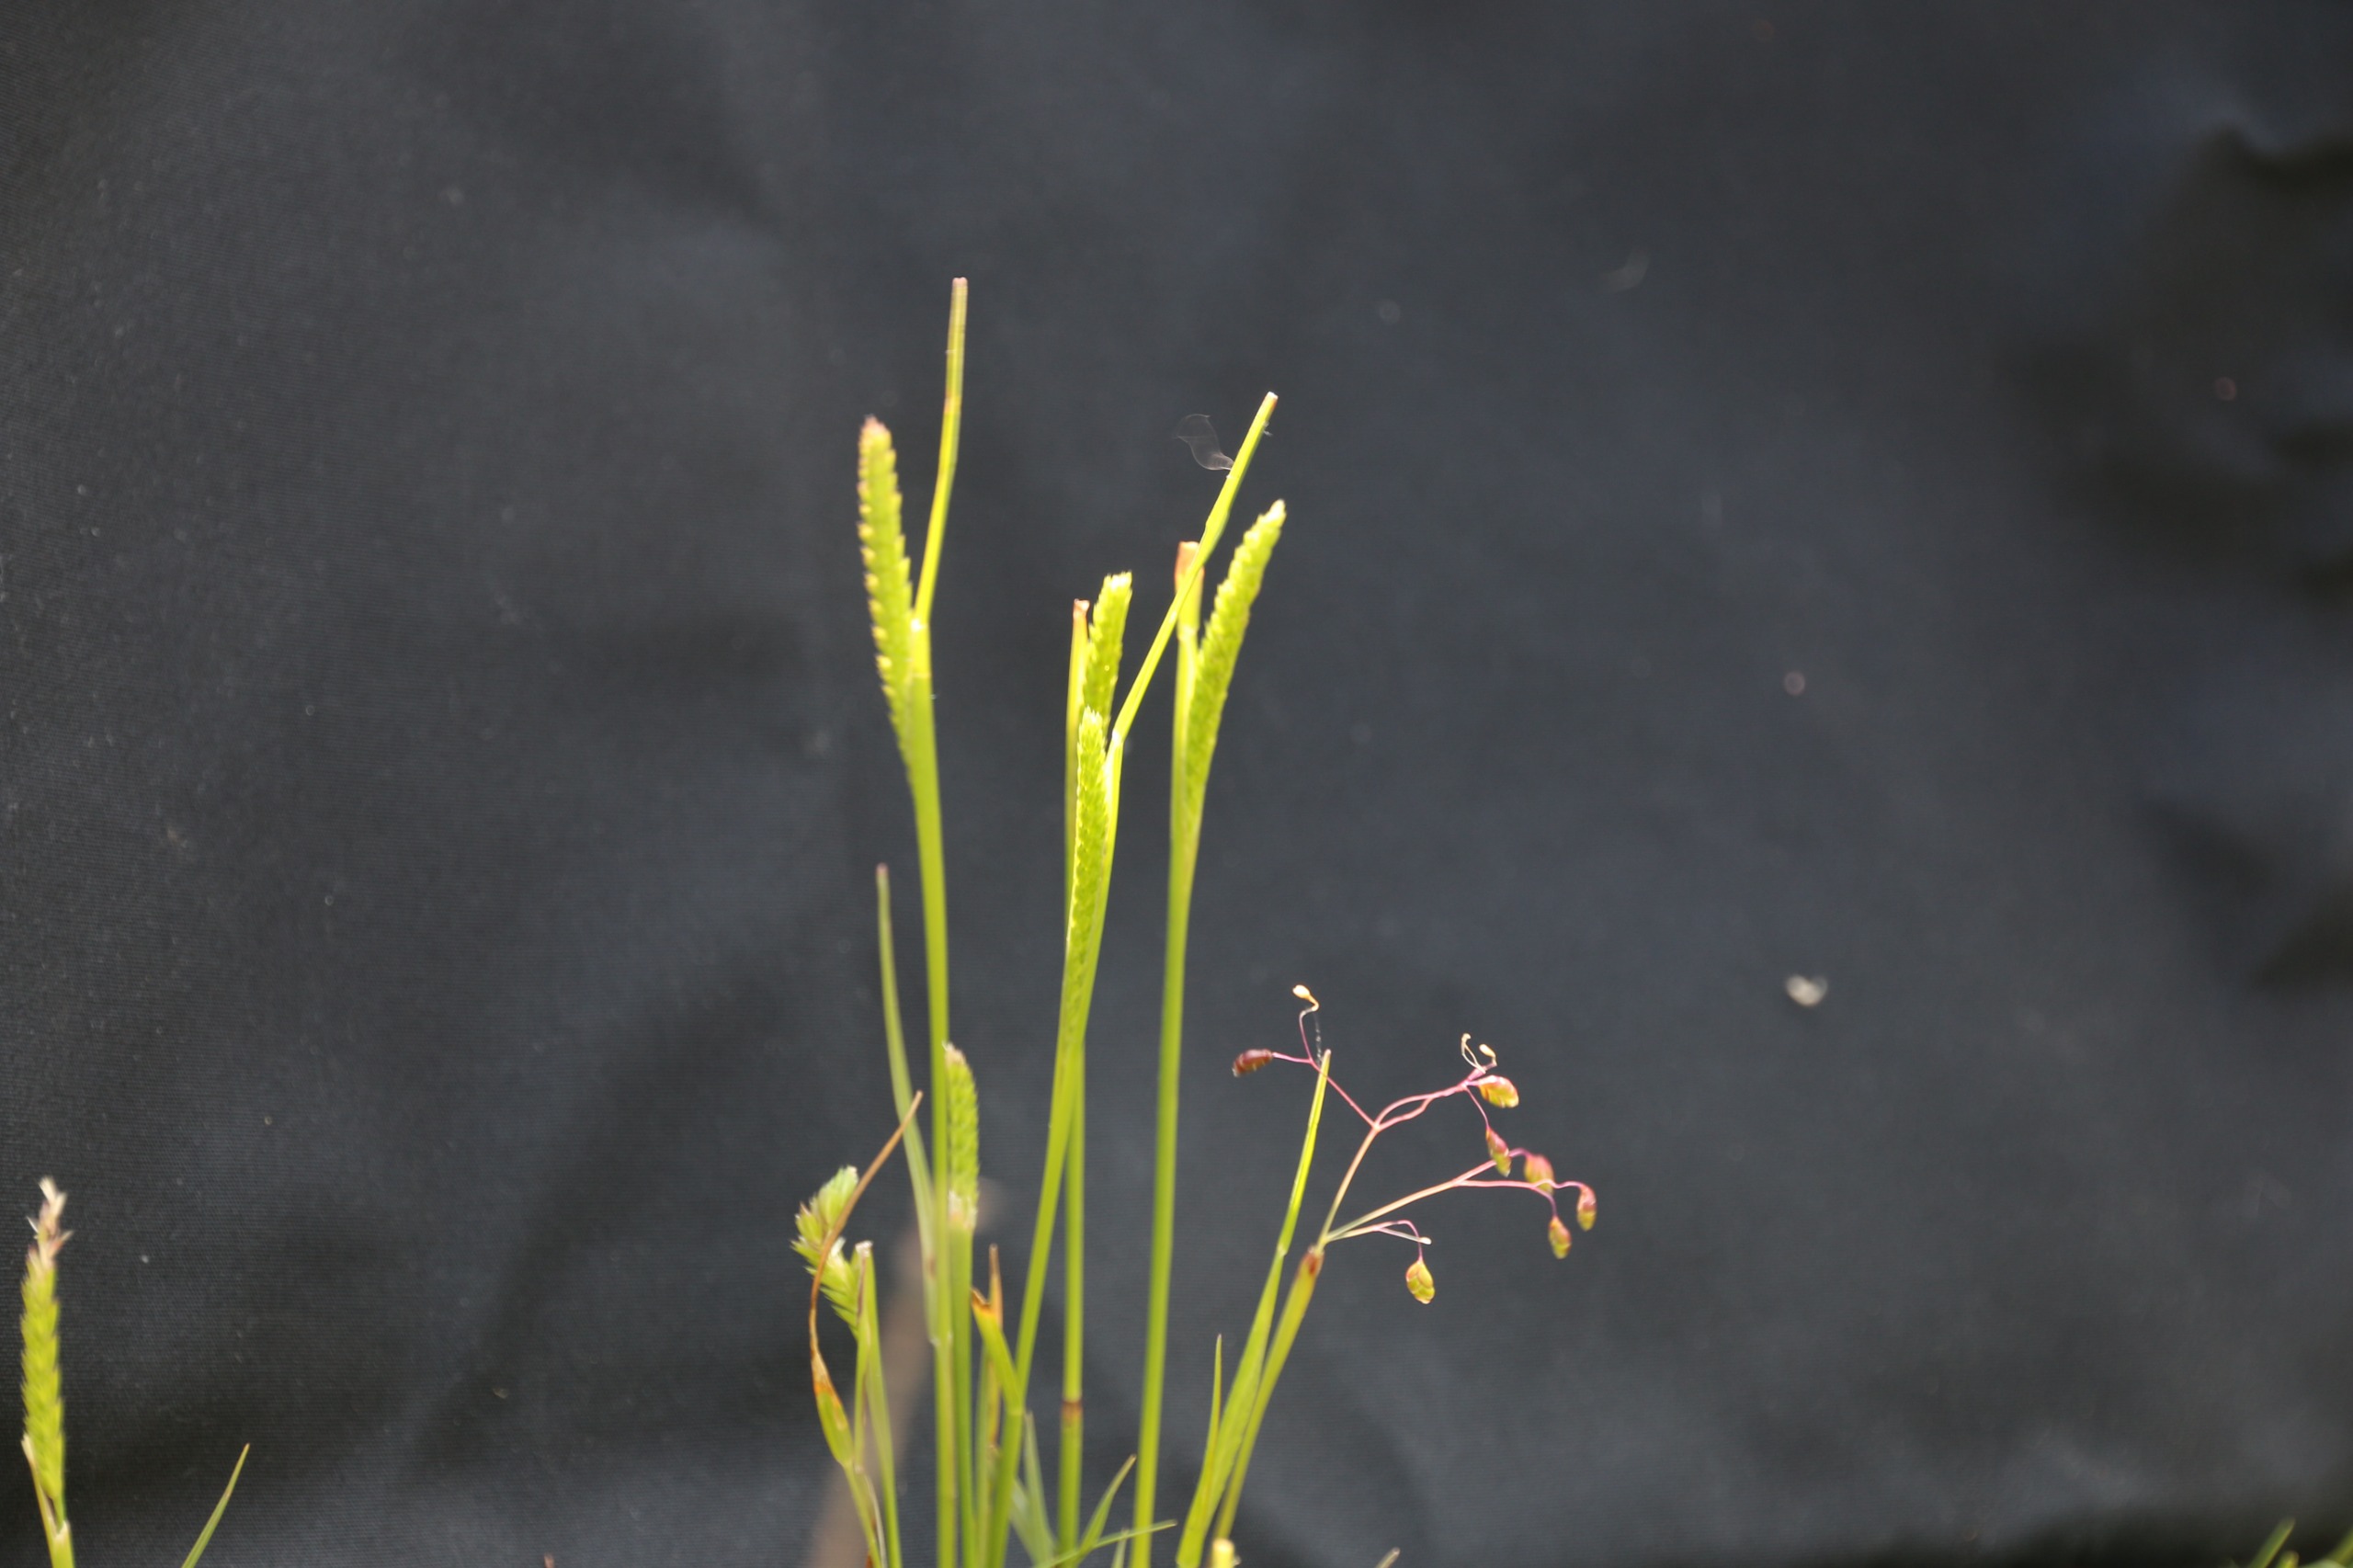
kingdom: Plantae
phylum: Tracheophyta
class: Liliopsida
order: Poales
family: Poaceae
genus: Cynosurus
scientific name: Cynosurus cristatus
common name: Kamgræs
